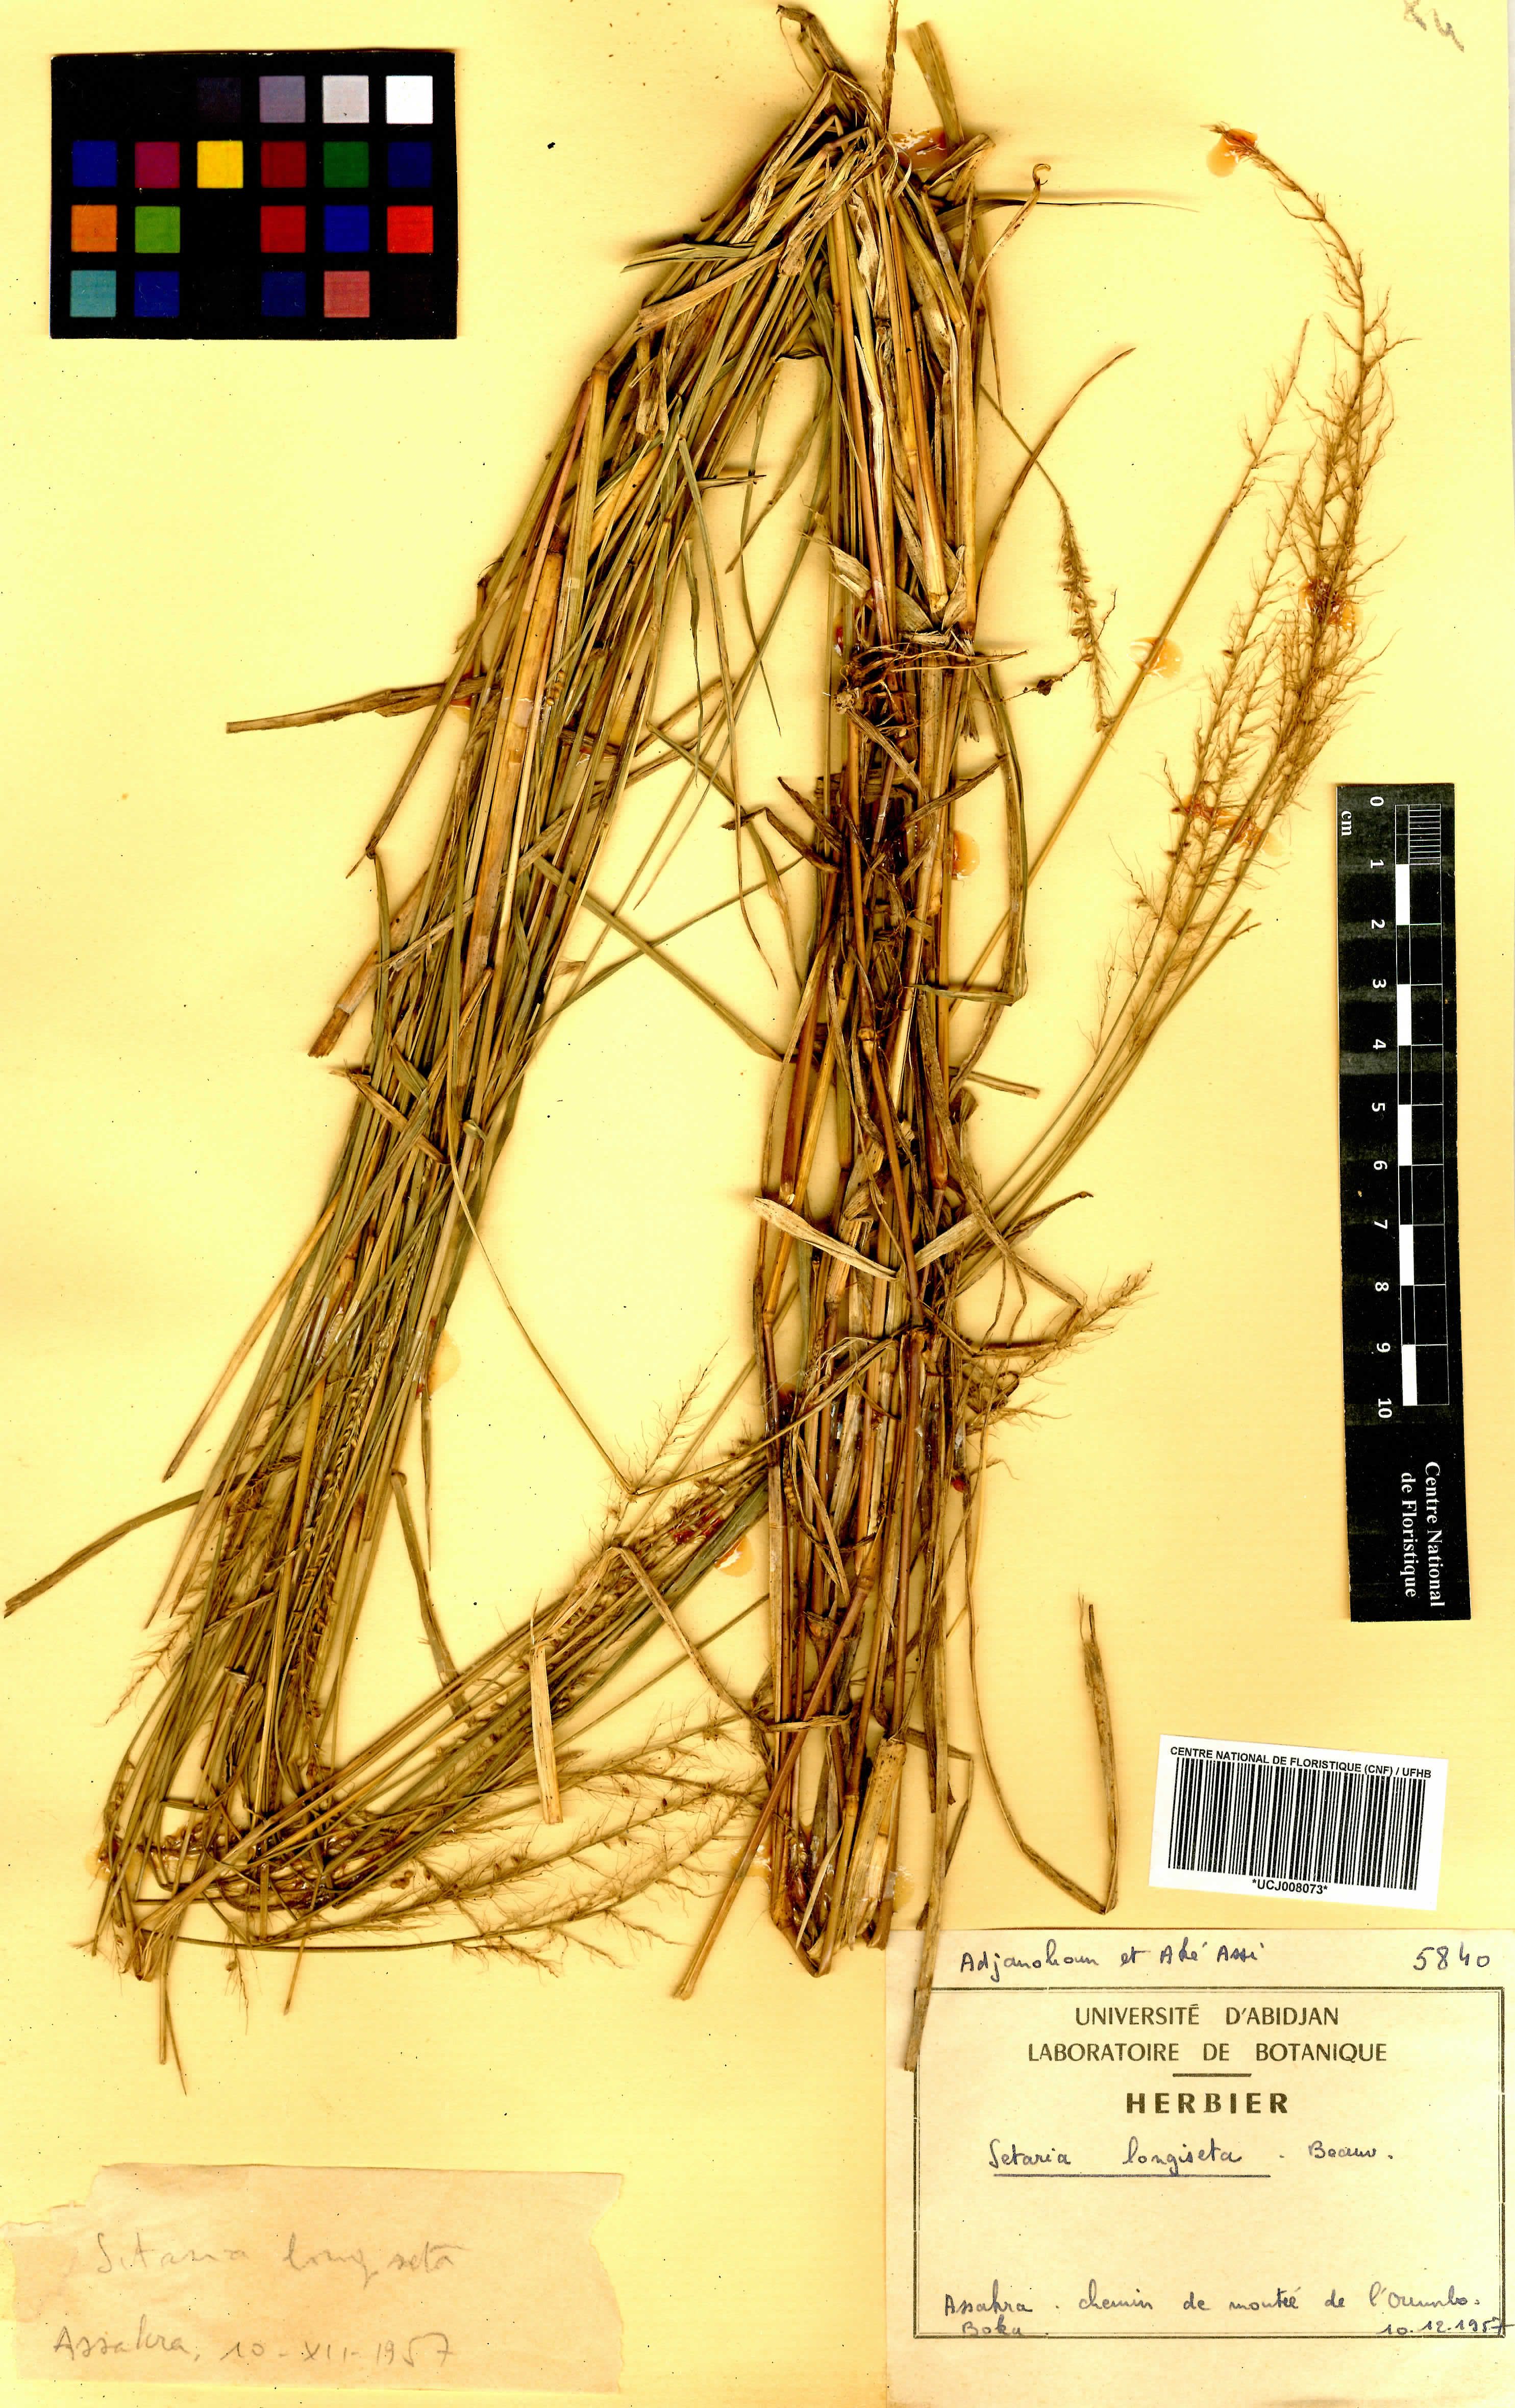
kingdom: Plantae
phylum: Tracheophyta
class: Liliopsida
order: Poales
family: Poaceae
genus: Setaria
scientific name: Setaria longiseta
